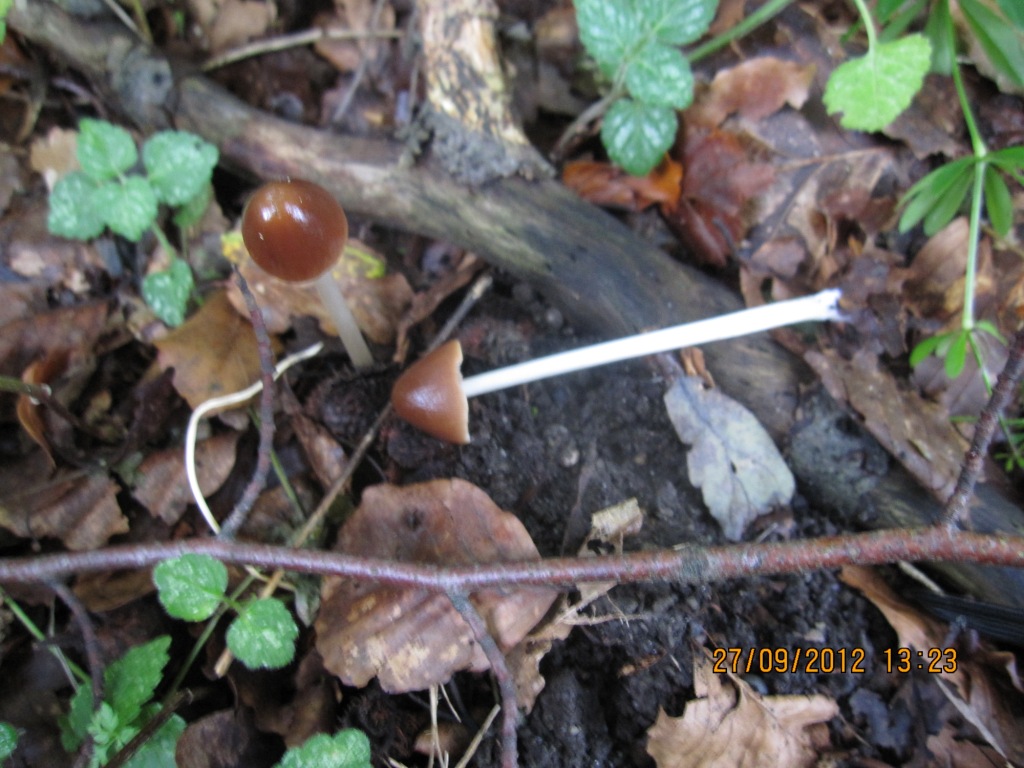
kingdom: Fungi
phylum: Basidiomycota
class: Agaricomycetes
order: Agaricales
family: Psathyrellaceae
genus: Parasola
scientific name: Parasola conopilea
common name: kegle-hjulhat
